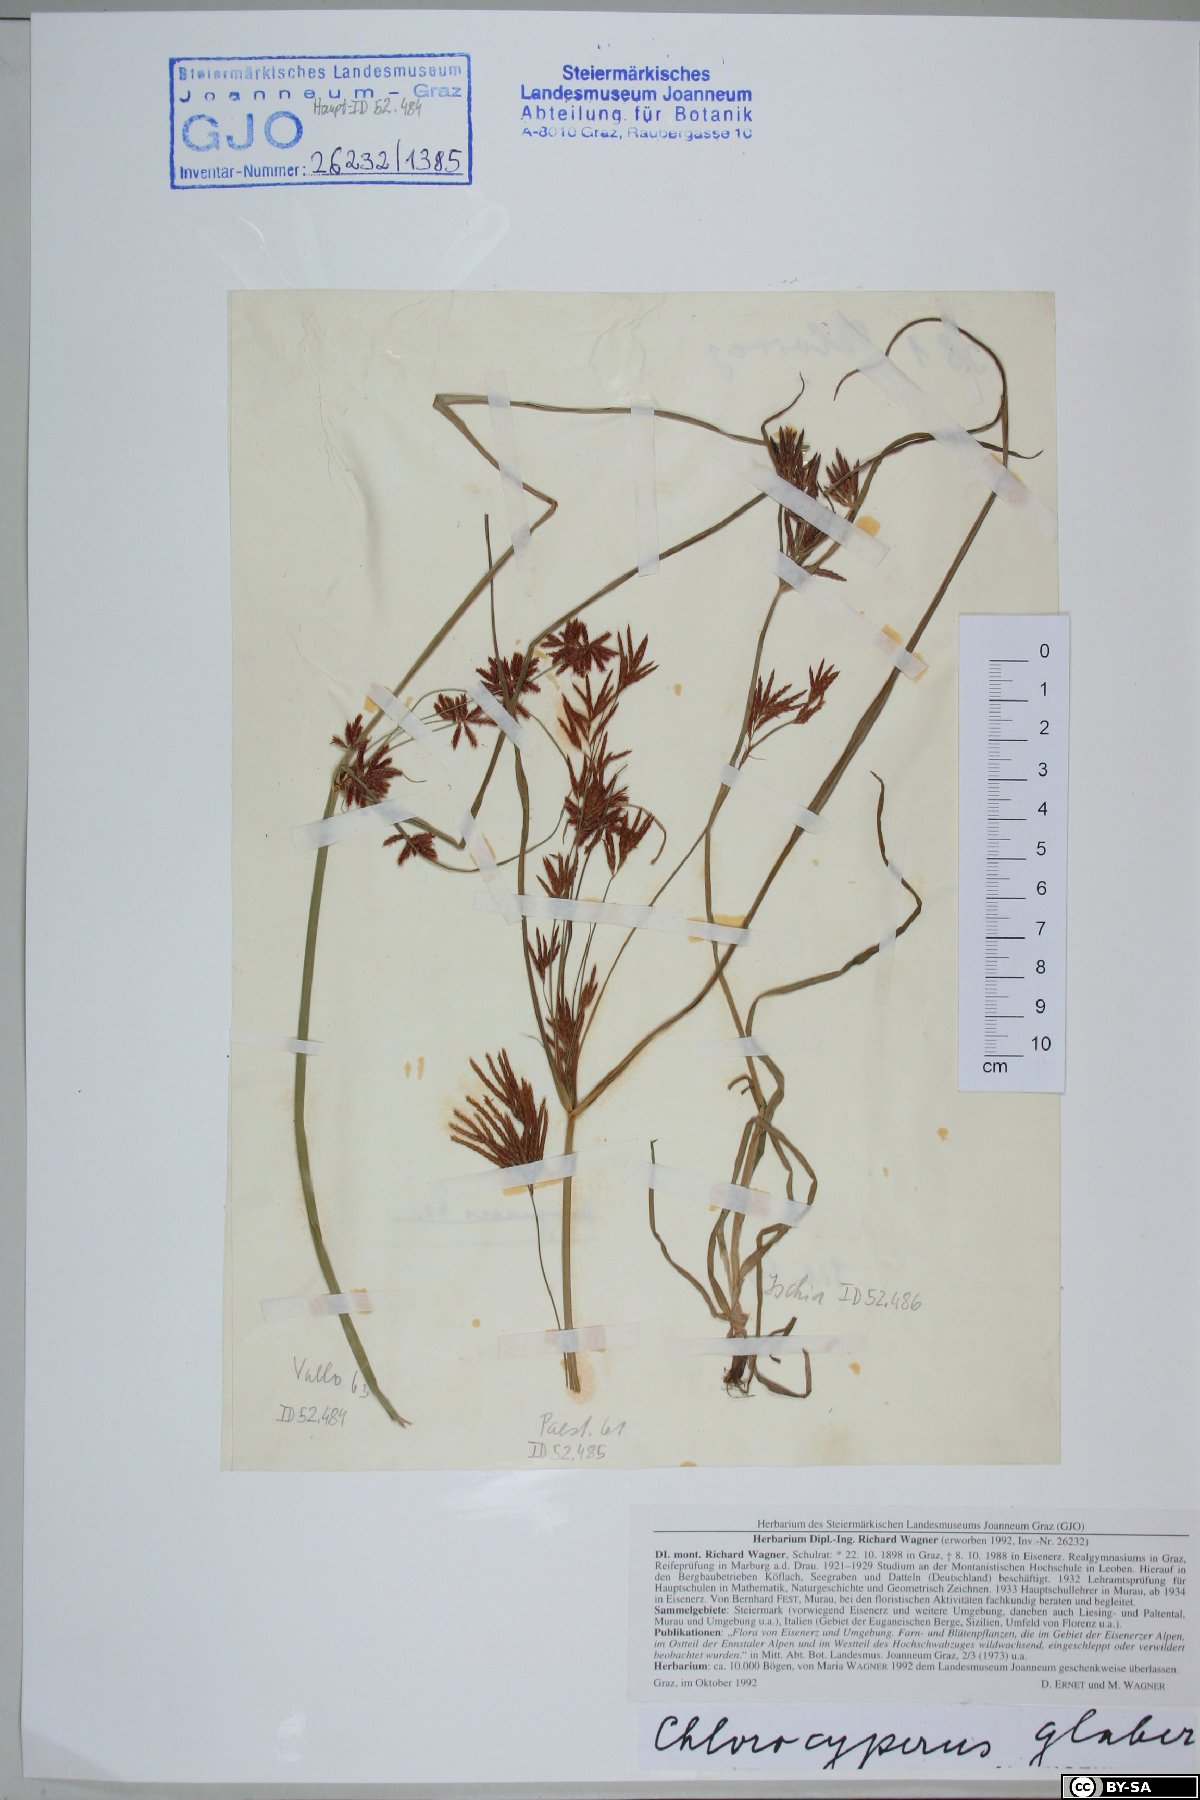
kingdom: Plantae
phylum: Tracheophyta
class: Liliopsida
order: Poales
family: Cyperaceae
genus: Cyperus
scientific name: Cyperus glaber
